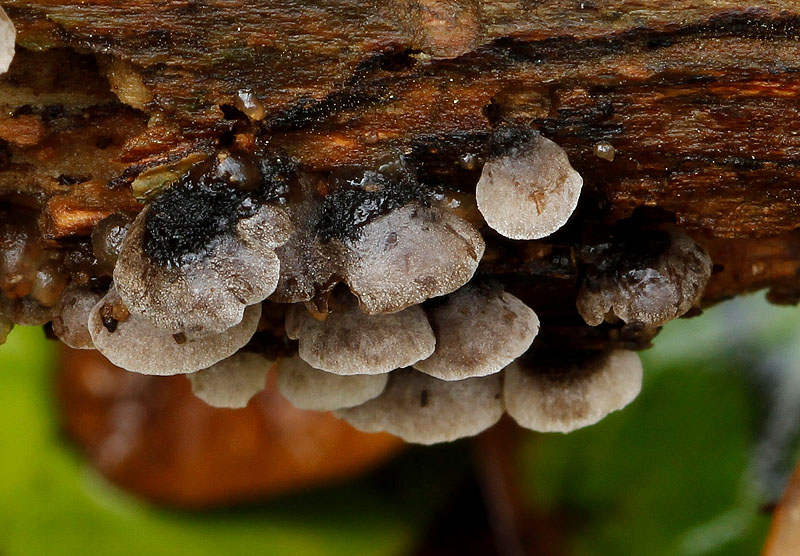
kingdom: Fungi
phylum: Basidiomycota
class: Agaricomycetes
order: Agaricales
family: Pleurotaceae
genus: Resupinatus
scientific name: Resupinatus trichotis
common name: mørkfiltet barkhat
